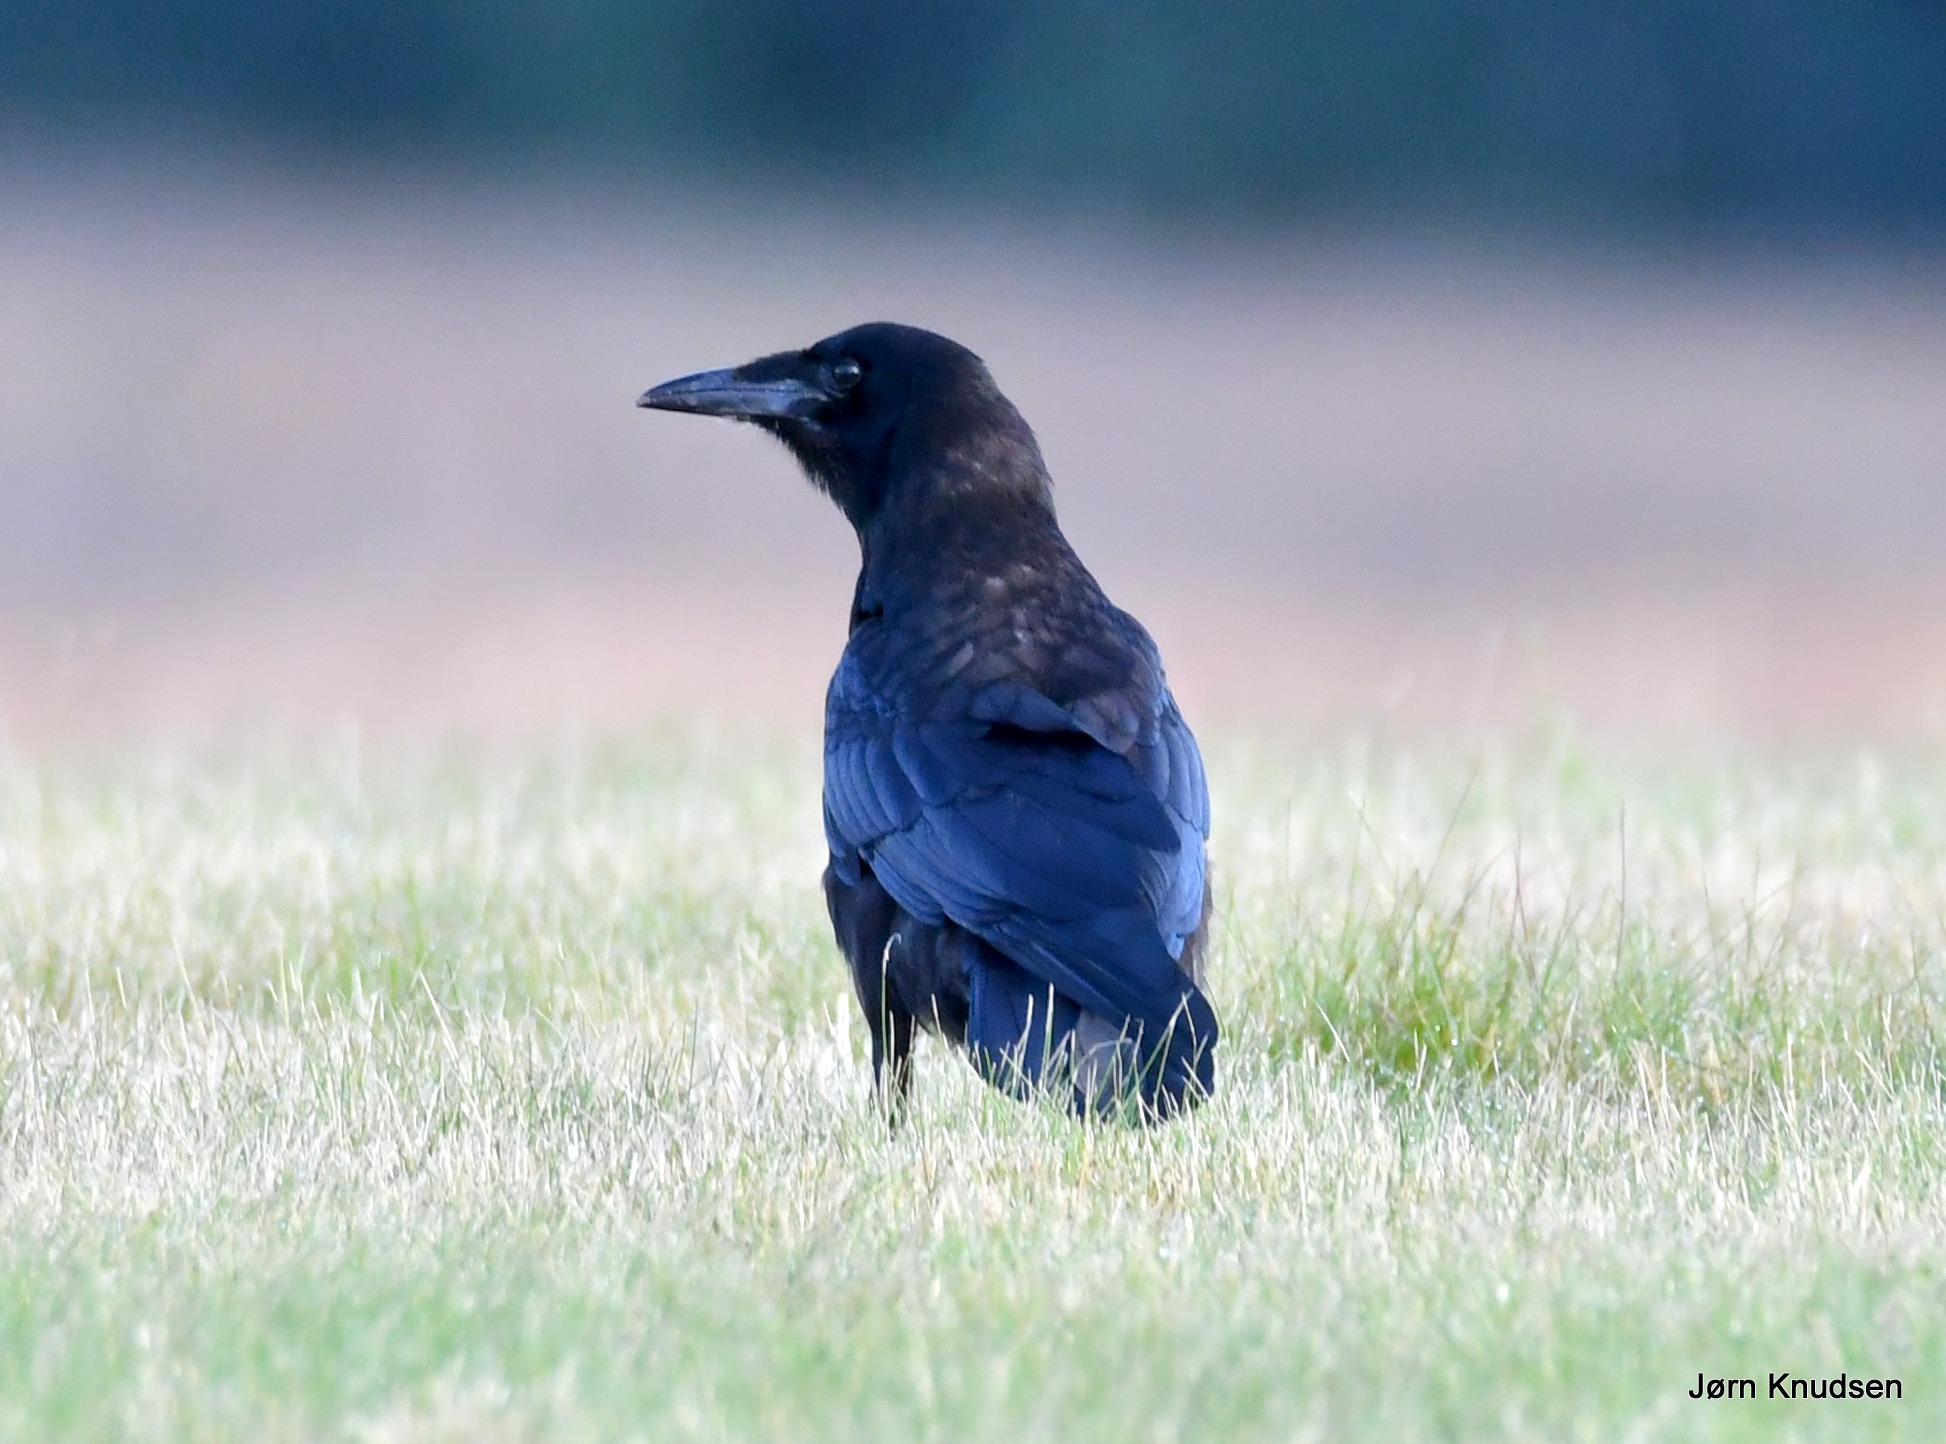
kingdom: Animalia
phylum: Chordata
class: Aves
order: Passeriformes
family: Corvidae
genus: Corvus
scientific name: Corvus frugilegus
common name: Råge
